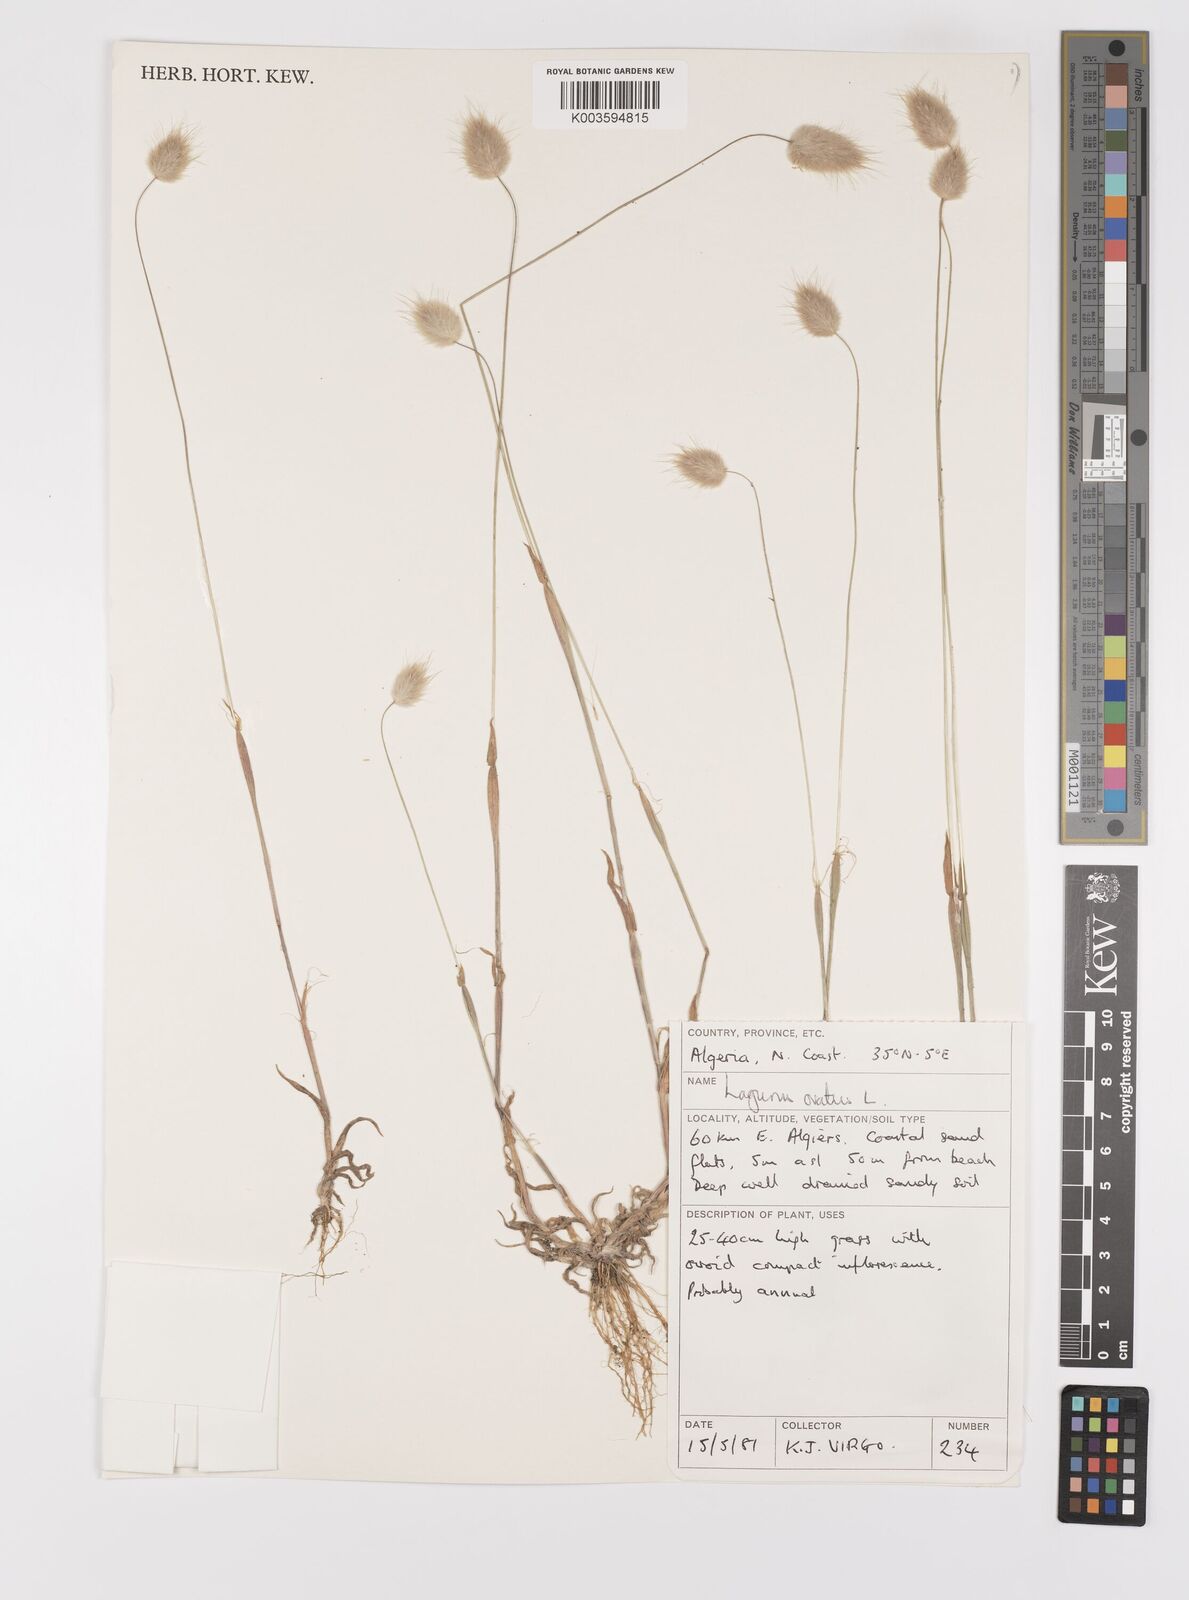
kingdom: Plantae
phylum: Tracheophyta
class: Liliopsida
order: Poales
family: Poaceae
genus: Lagurus
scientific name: Lagurus ovatus
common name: Hare's-tail
